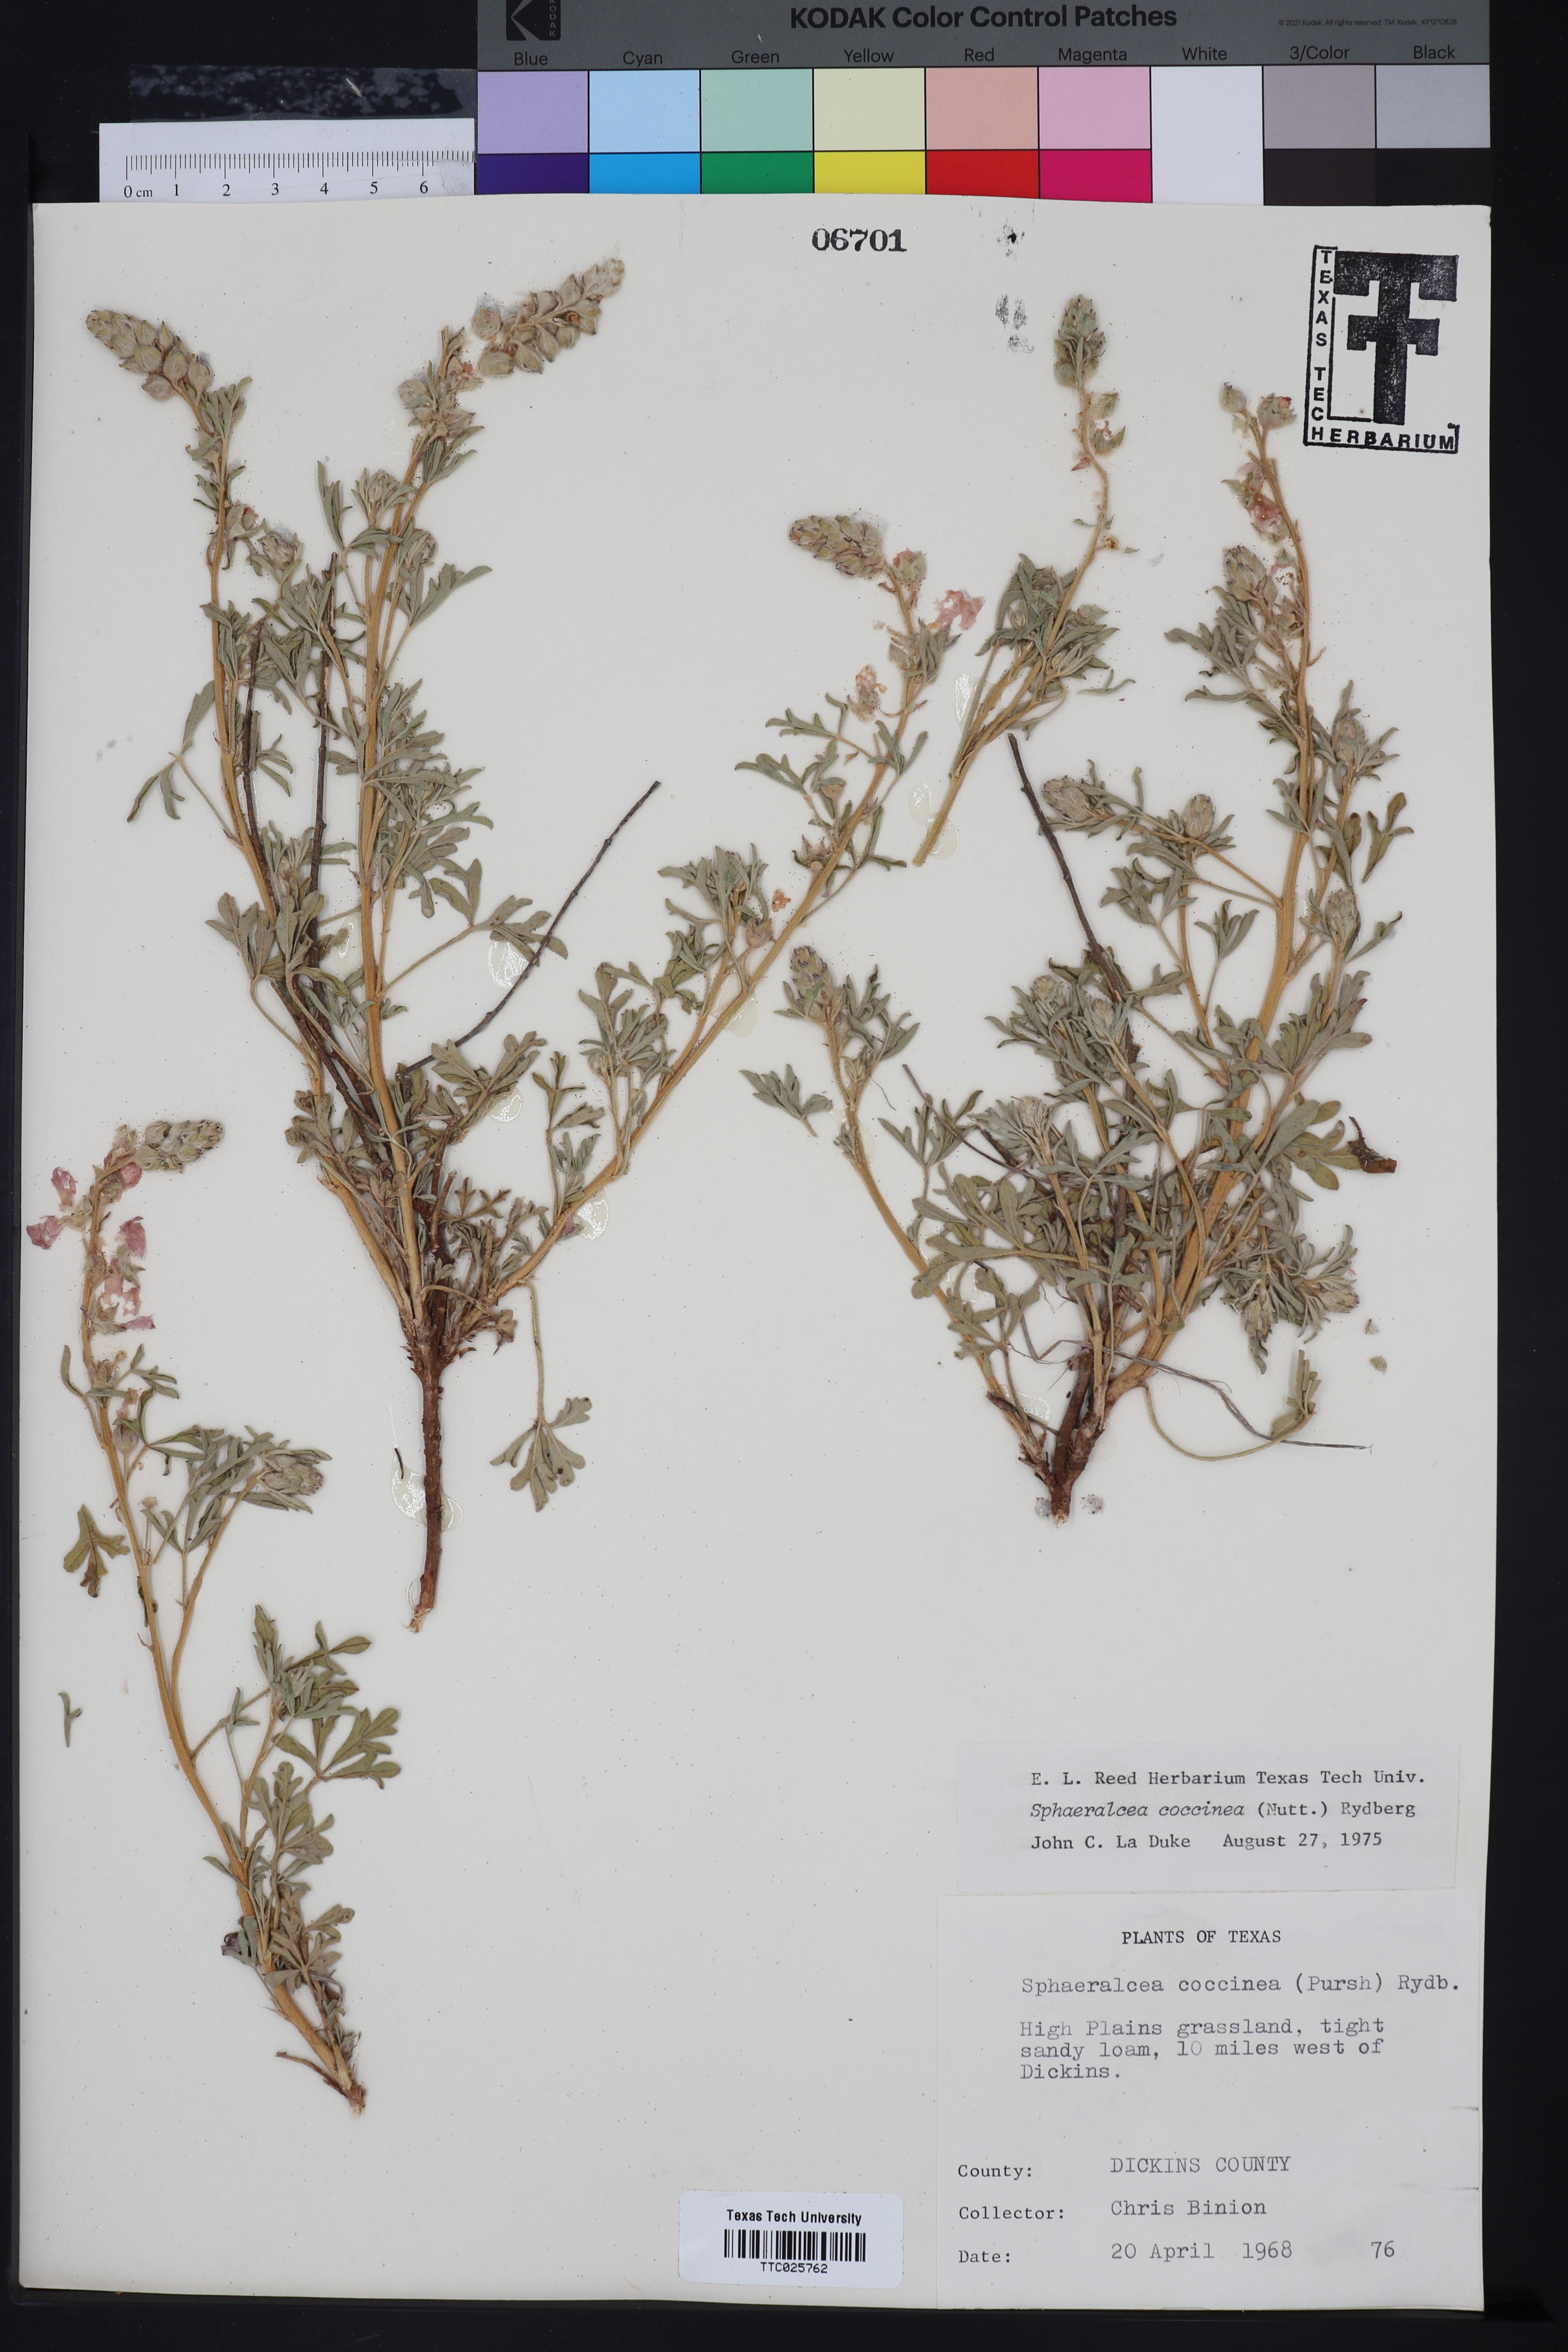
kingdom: Plantae
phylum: Tracheophyta
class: Magnoliopsida
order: Malvales
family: Malvaceae
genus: Sphaeralcea
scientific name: Sphaeralcea coccinea
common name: Moss-rose
